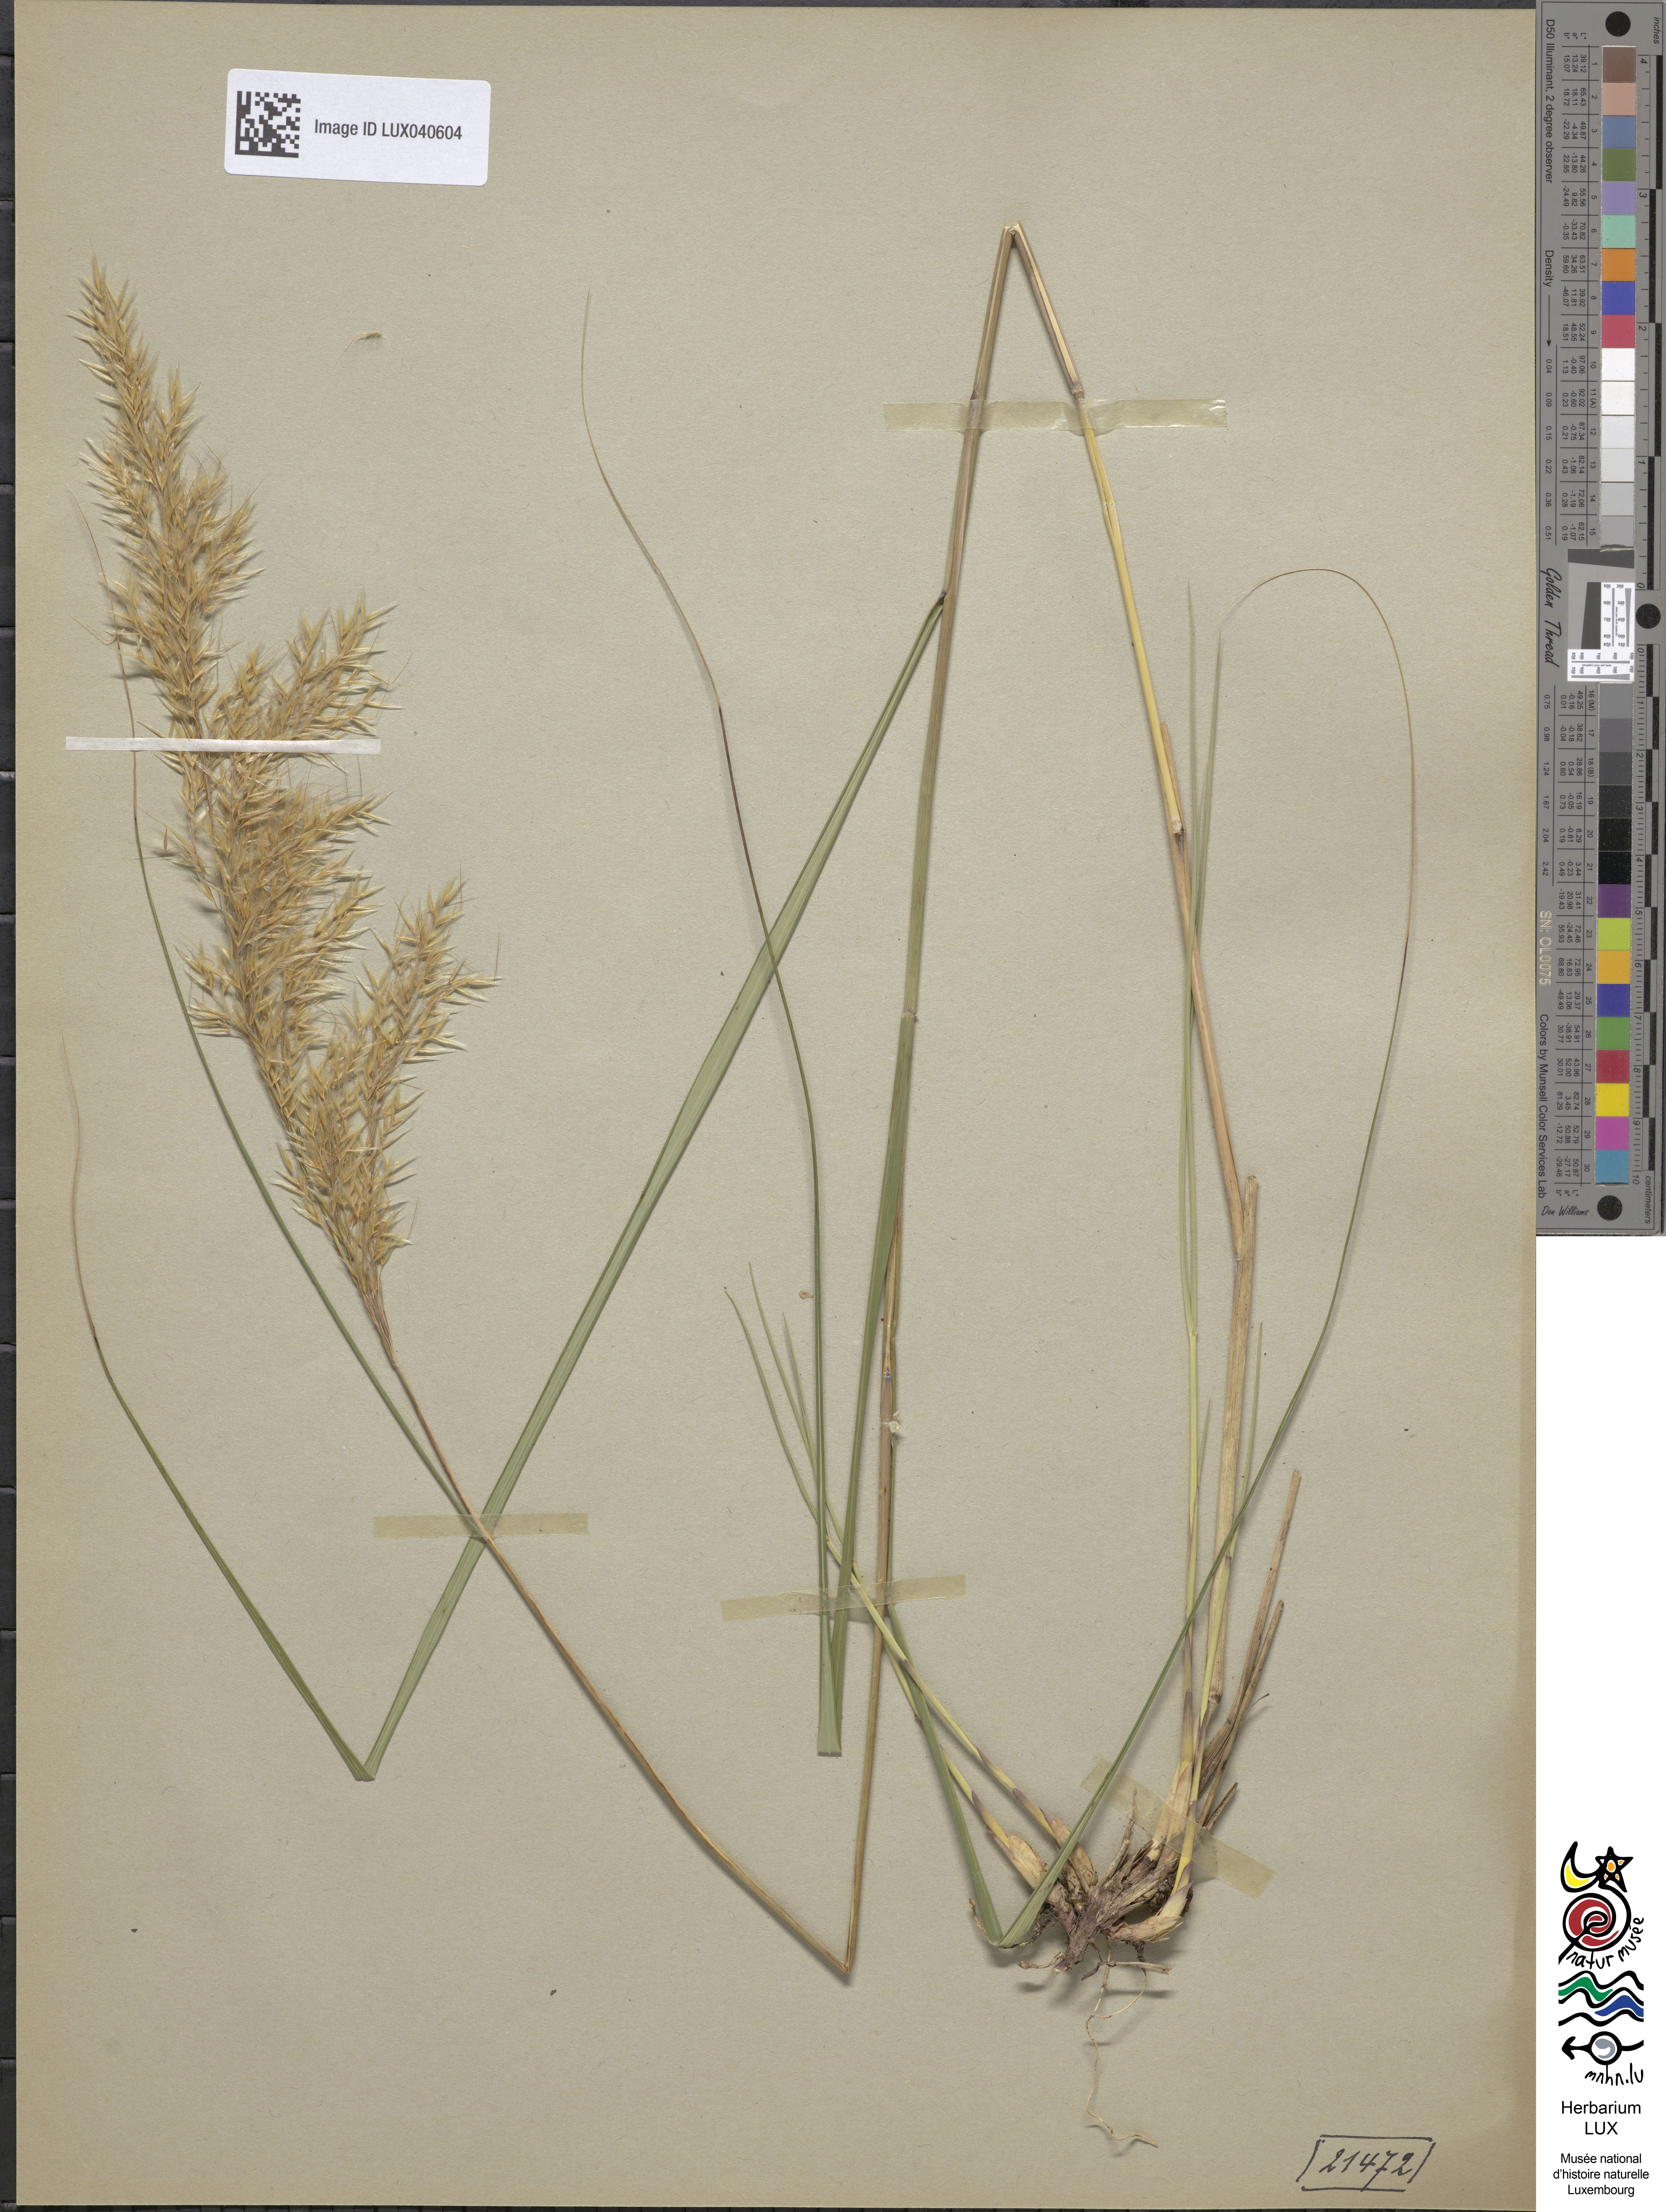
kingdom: Plantae
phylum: Tracheophyta
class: Liliopsida
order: Poales
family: Poaceae
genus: Achnatherum
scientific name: Achnatherum calamagrostis
